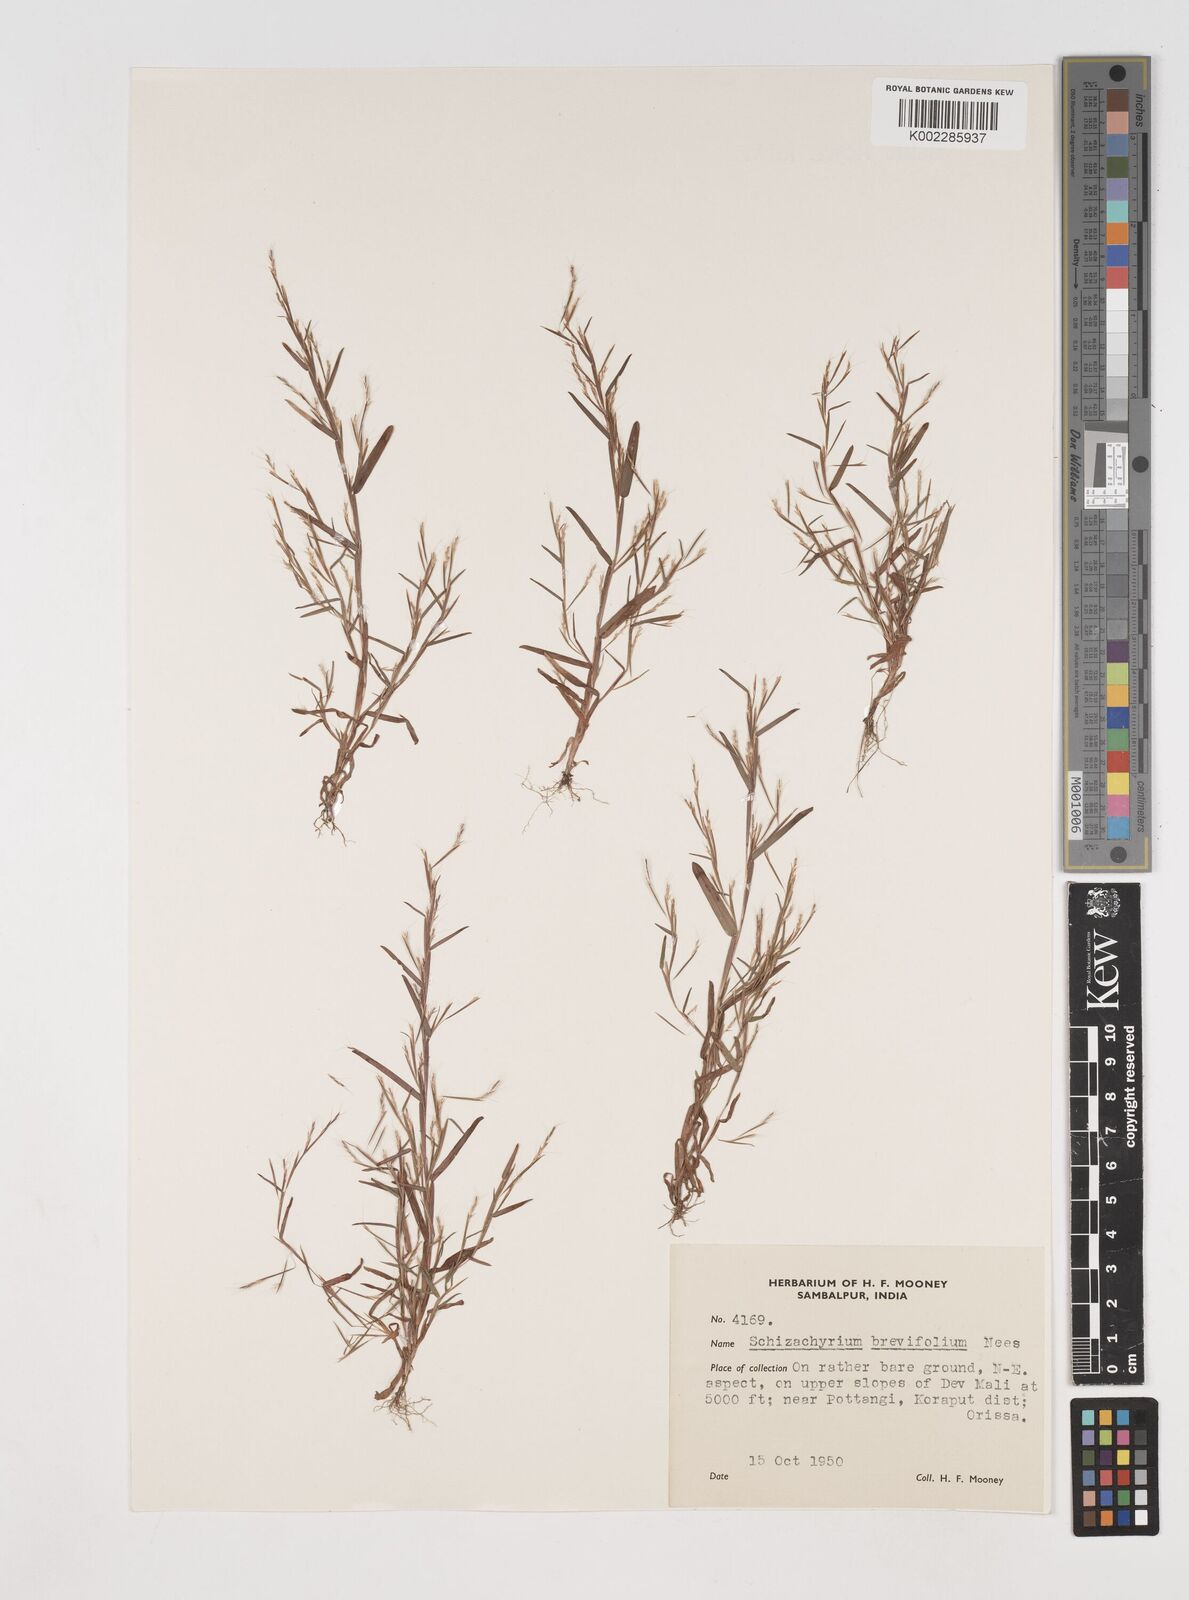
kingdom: Plantae
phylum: Tracheophyta
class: Liliopsida
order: Poales
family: Poaceae
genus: Schizachyrium
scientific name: Schizachyrium brevifolium
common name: Serillo dulce
